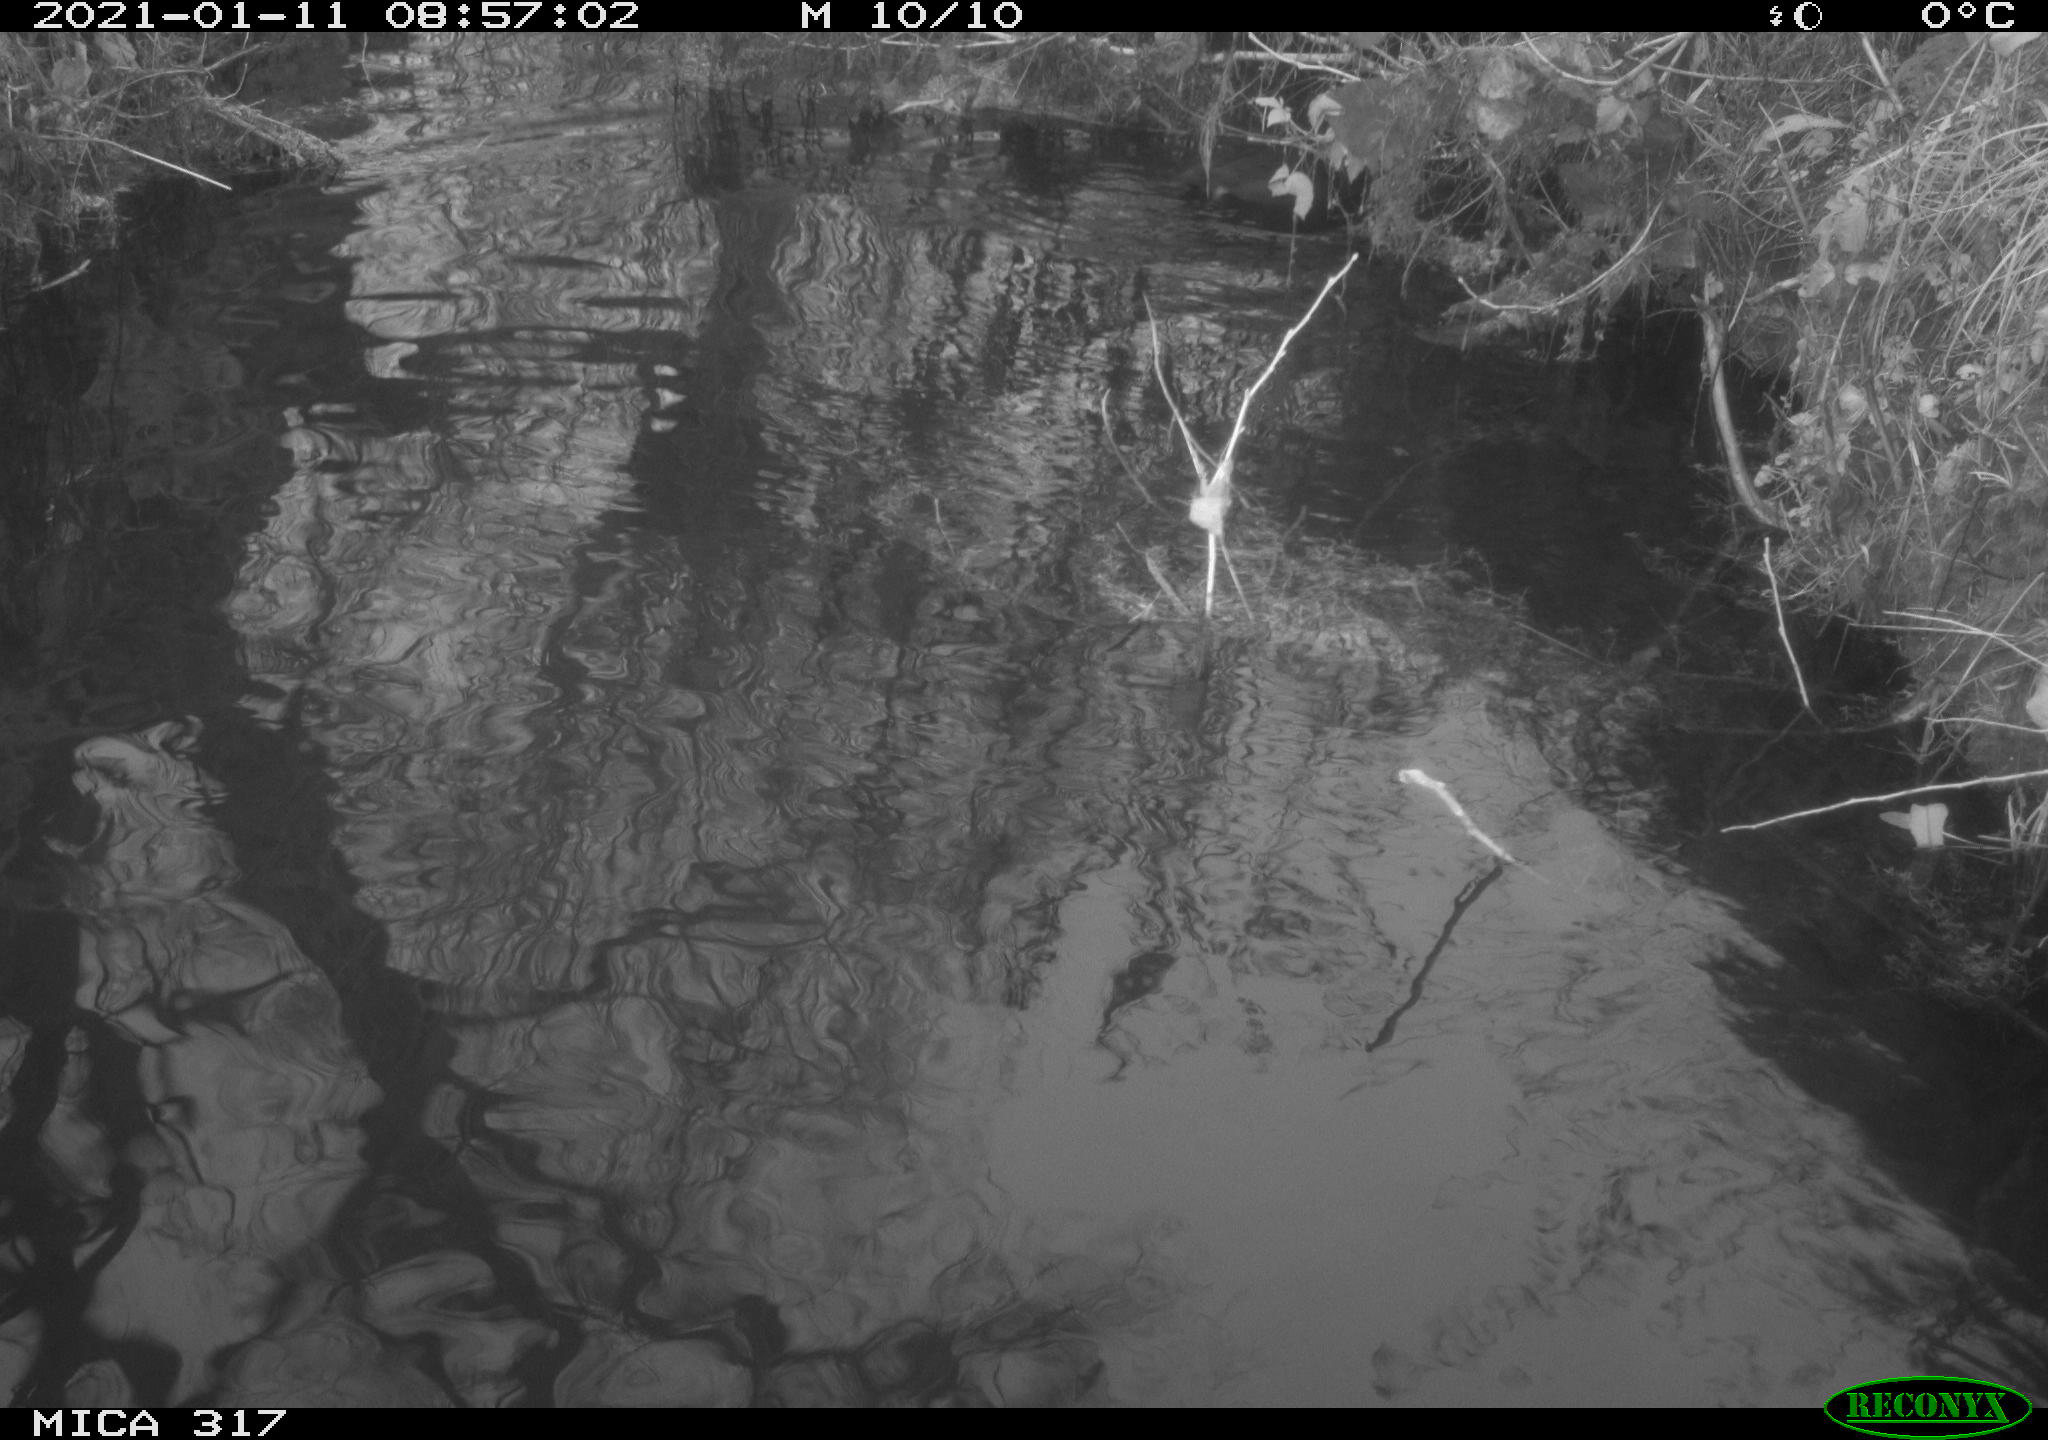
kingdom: Animalia
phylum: Chordata
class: Aves
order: Gruiformes
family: Rallidae
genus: Fulica
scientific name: Fulica atra
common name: Eurasian coot
